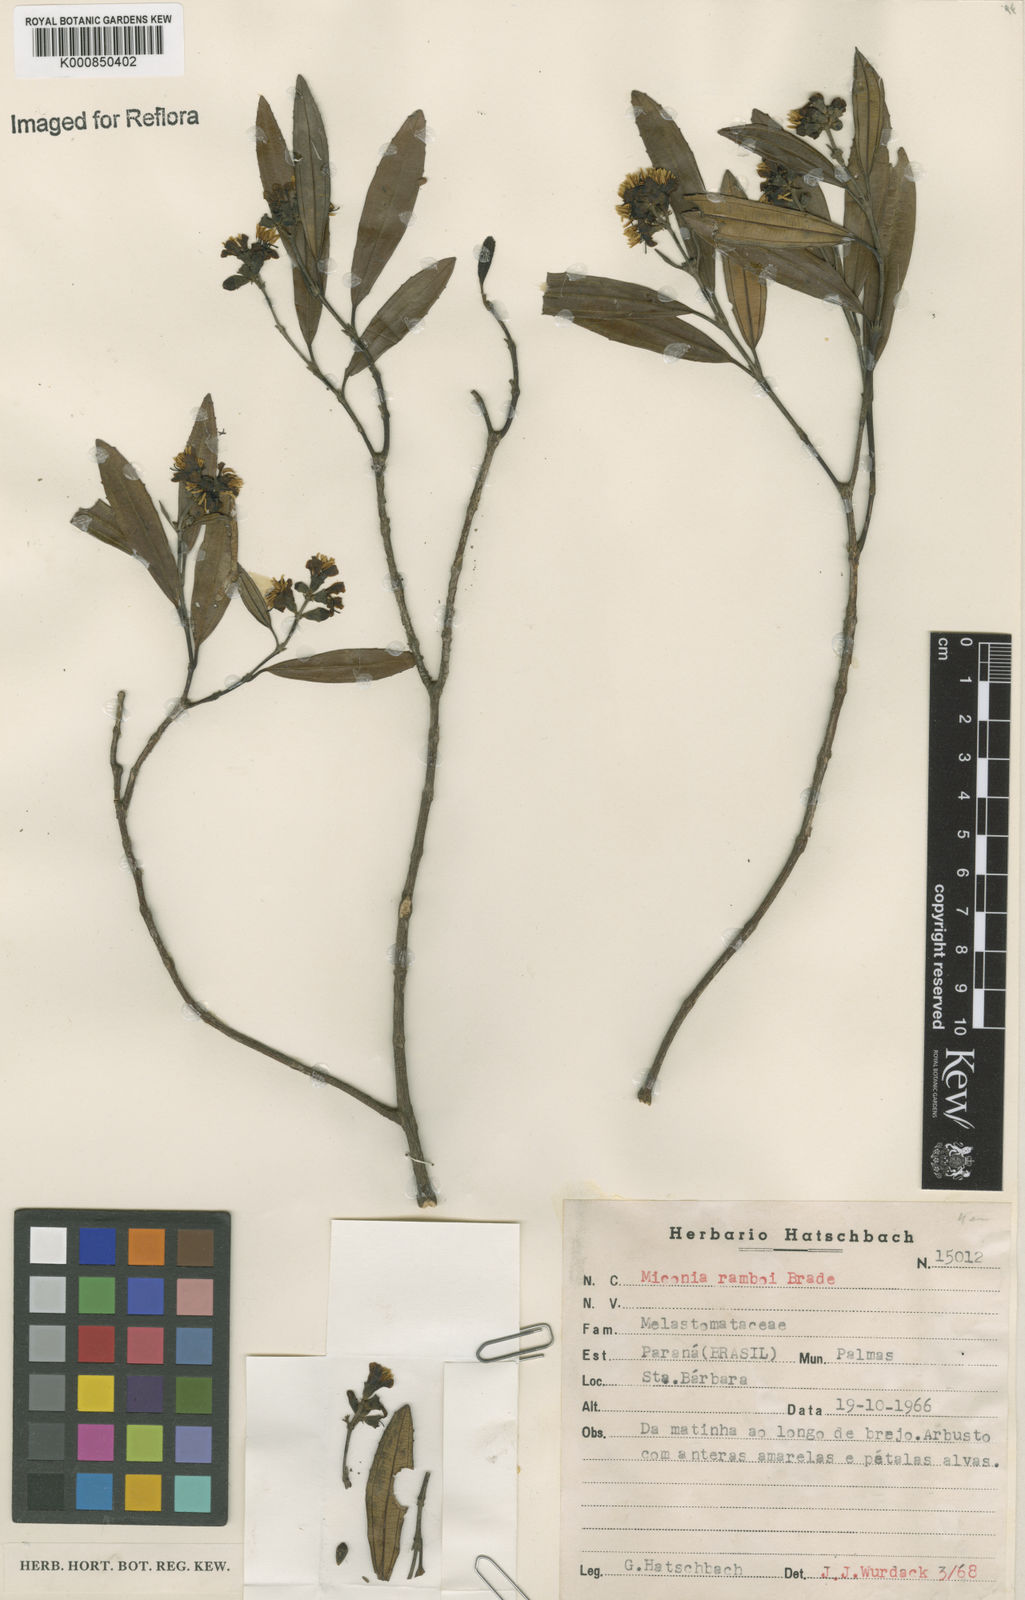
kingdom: Plantae
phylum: Tracheophyta
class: Magnoliopsida
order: Myrtales
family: Melastomataceae
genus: Miconia
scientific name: Miconia ramboi
